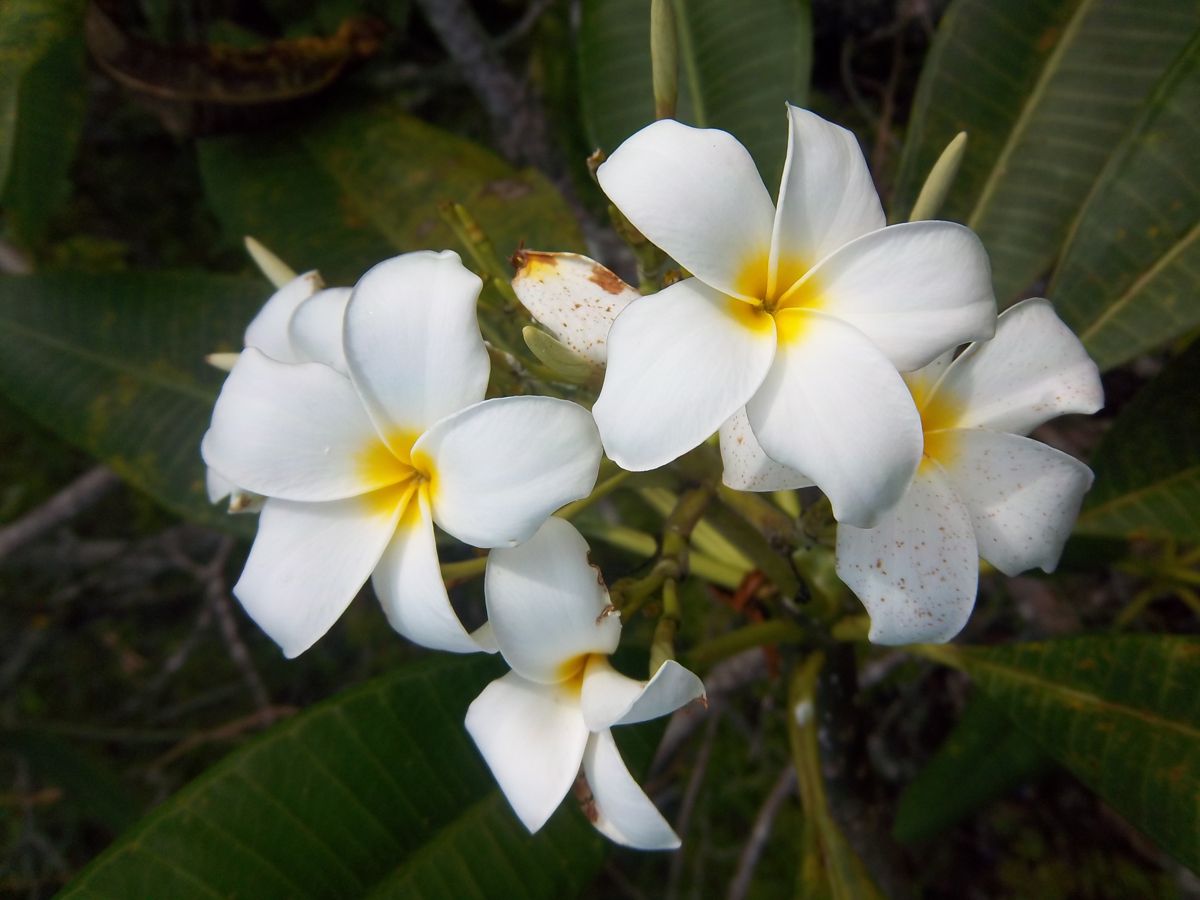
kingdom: Plantae
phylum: Tracheophyta
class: Magnoliopsida
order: Gentianales
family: Apocynaceae
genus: Plumeria
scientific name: Plumeria rubra
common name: Pagoda-tree
